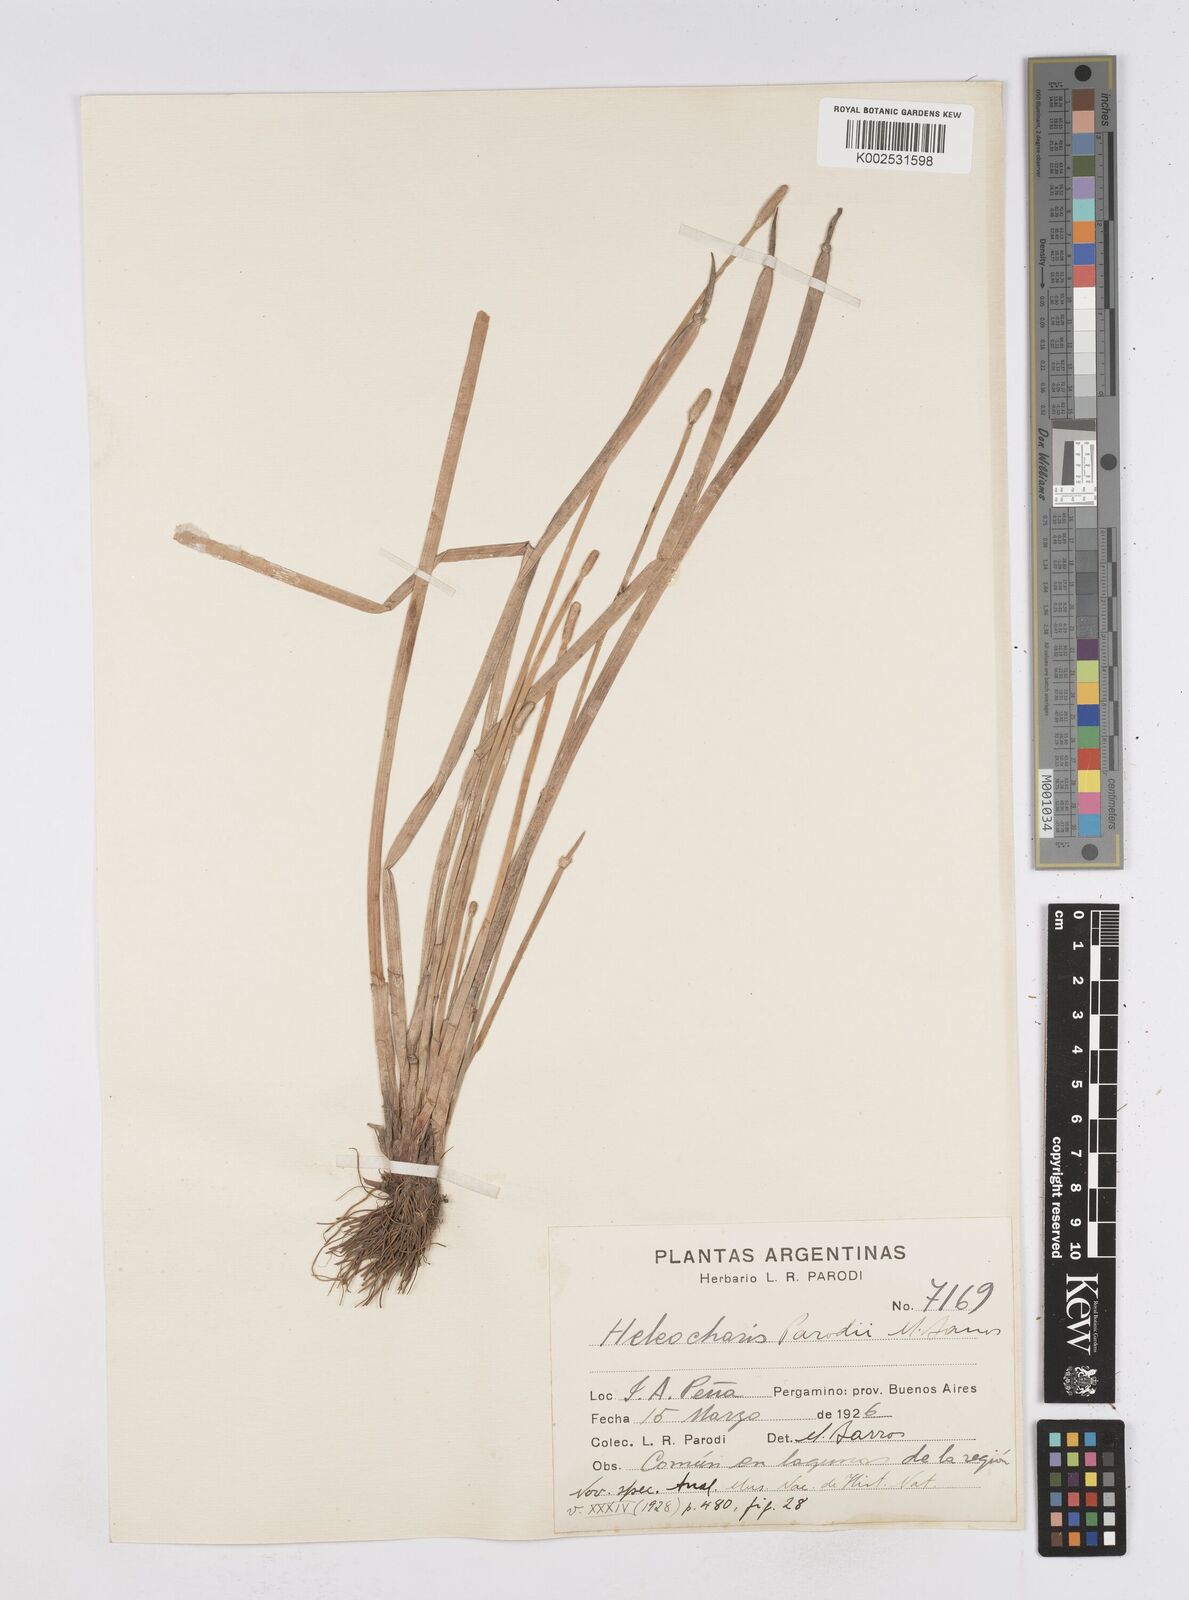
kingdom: Plantae
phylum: Tracheophyta
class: Liliopsida
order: Poales
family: Cyperaceae
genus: Eleocharis
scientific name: Eleocharis parodii
